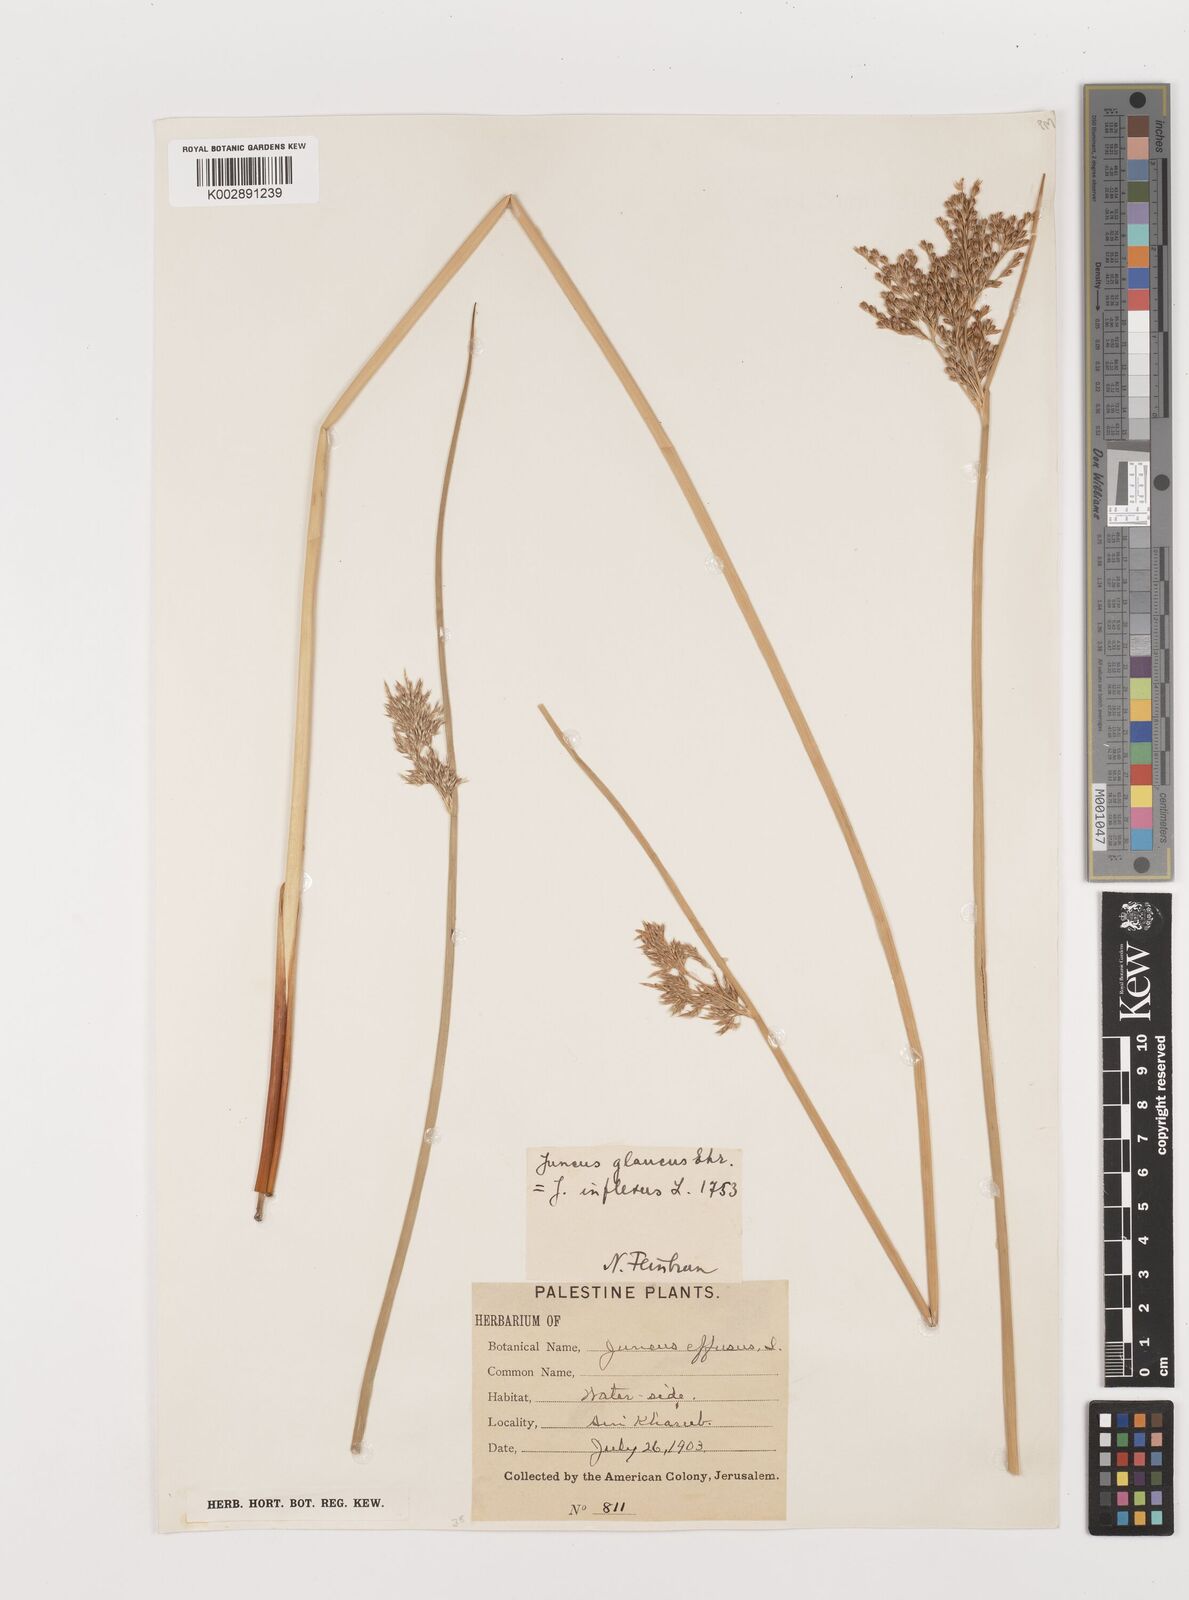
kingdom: Plantae
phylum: Tracheophyta
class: Liliopsida
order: Poales
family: Juncaceae
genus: Juncus
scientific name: Juncus inflexus
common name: Hard rush
